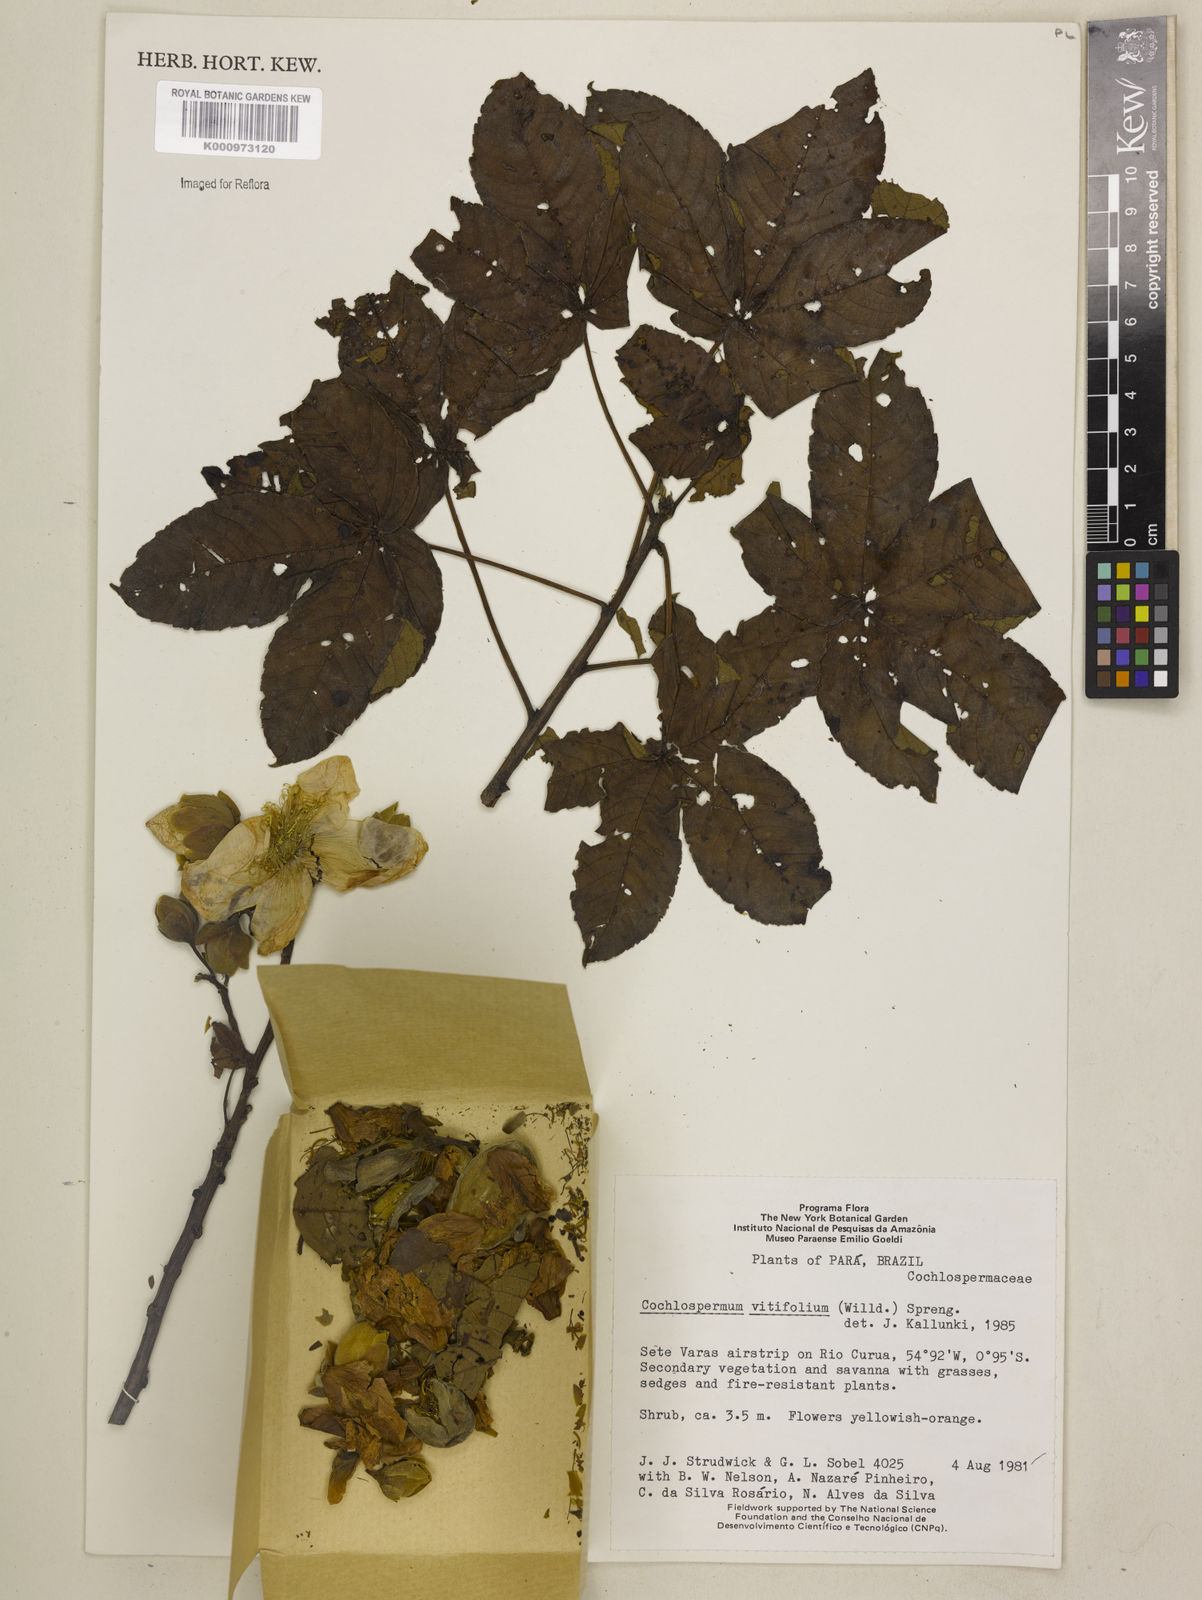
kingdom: Plantae
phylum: Tracheophyta
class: Magnoliopsida
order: Malvales
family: Cochlospermaceae
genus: Cochlospermum
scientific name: Cochlospermum regium
